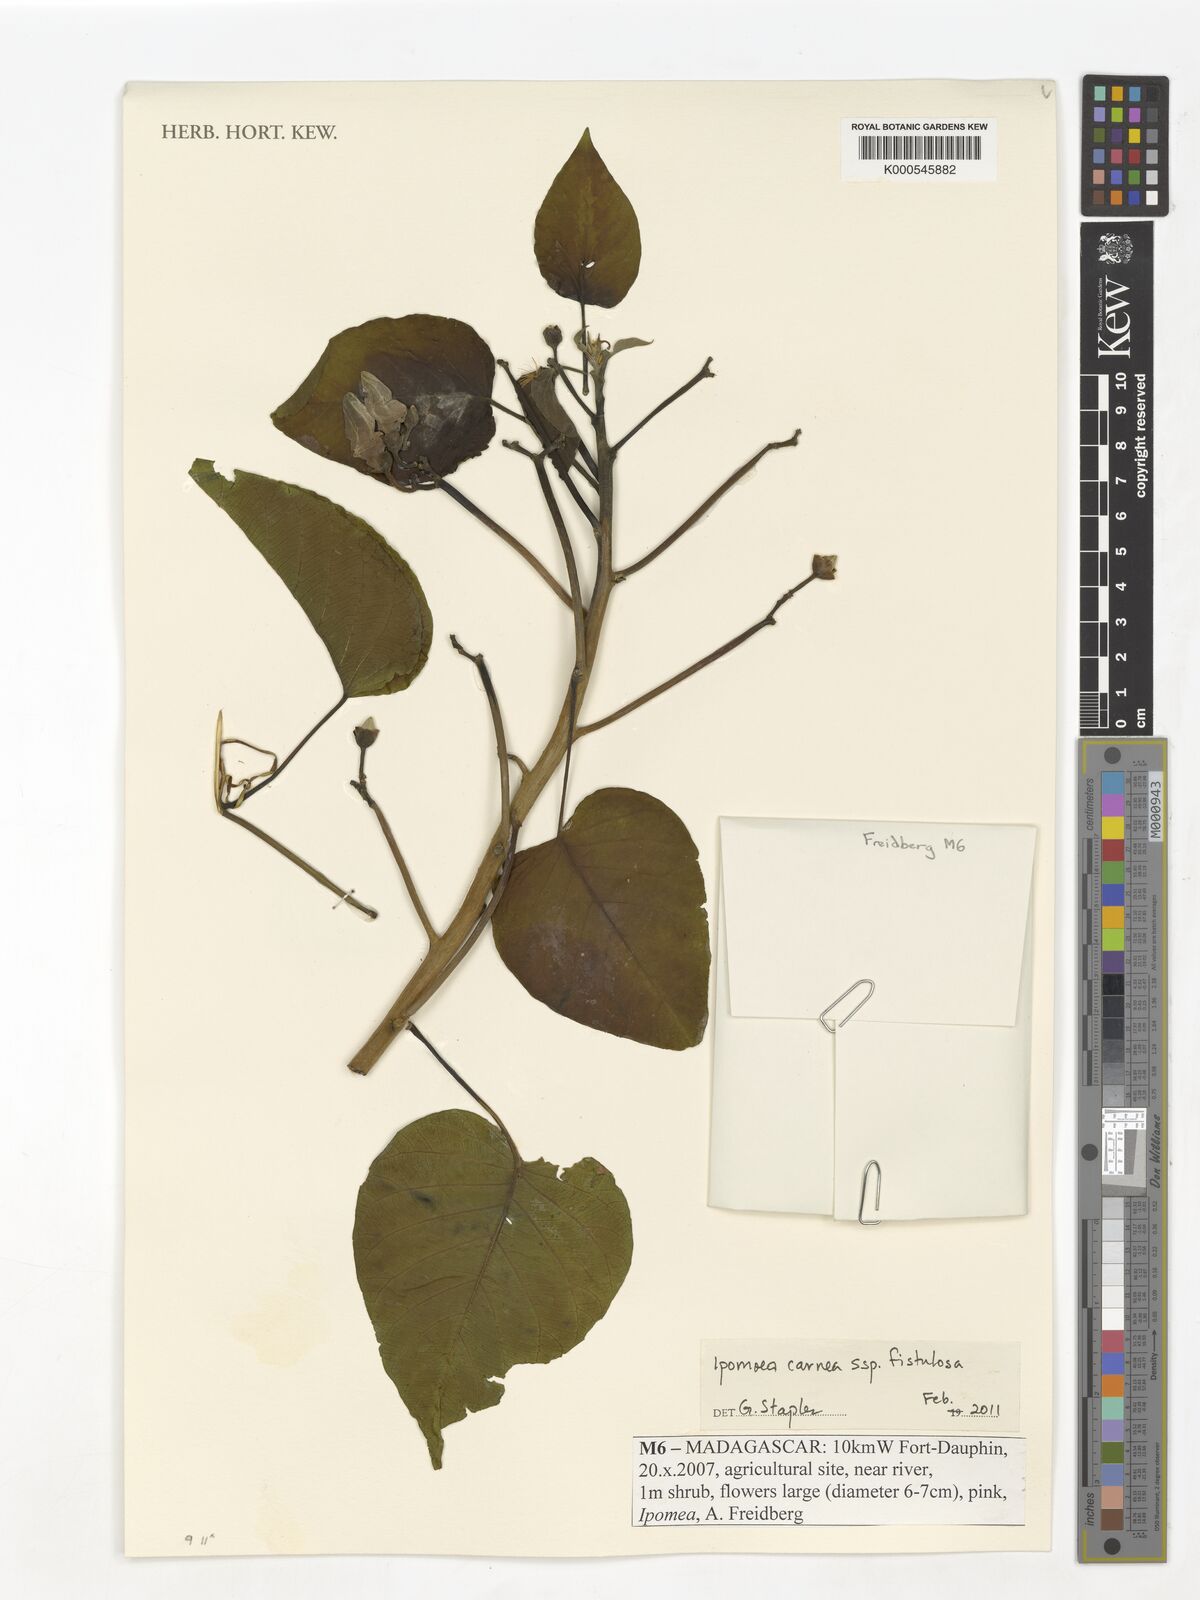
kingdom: Plantae
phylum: Tracheophyta
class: Magnoliopsida
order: Solanales
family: Convolvulaceae
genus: Ipomoea
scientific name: Ipomoea carnea
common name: Morning-glory
